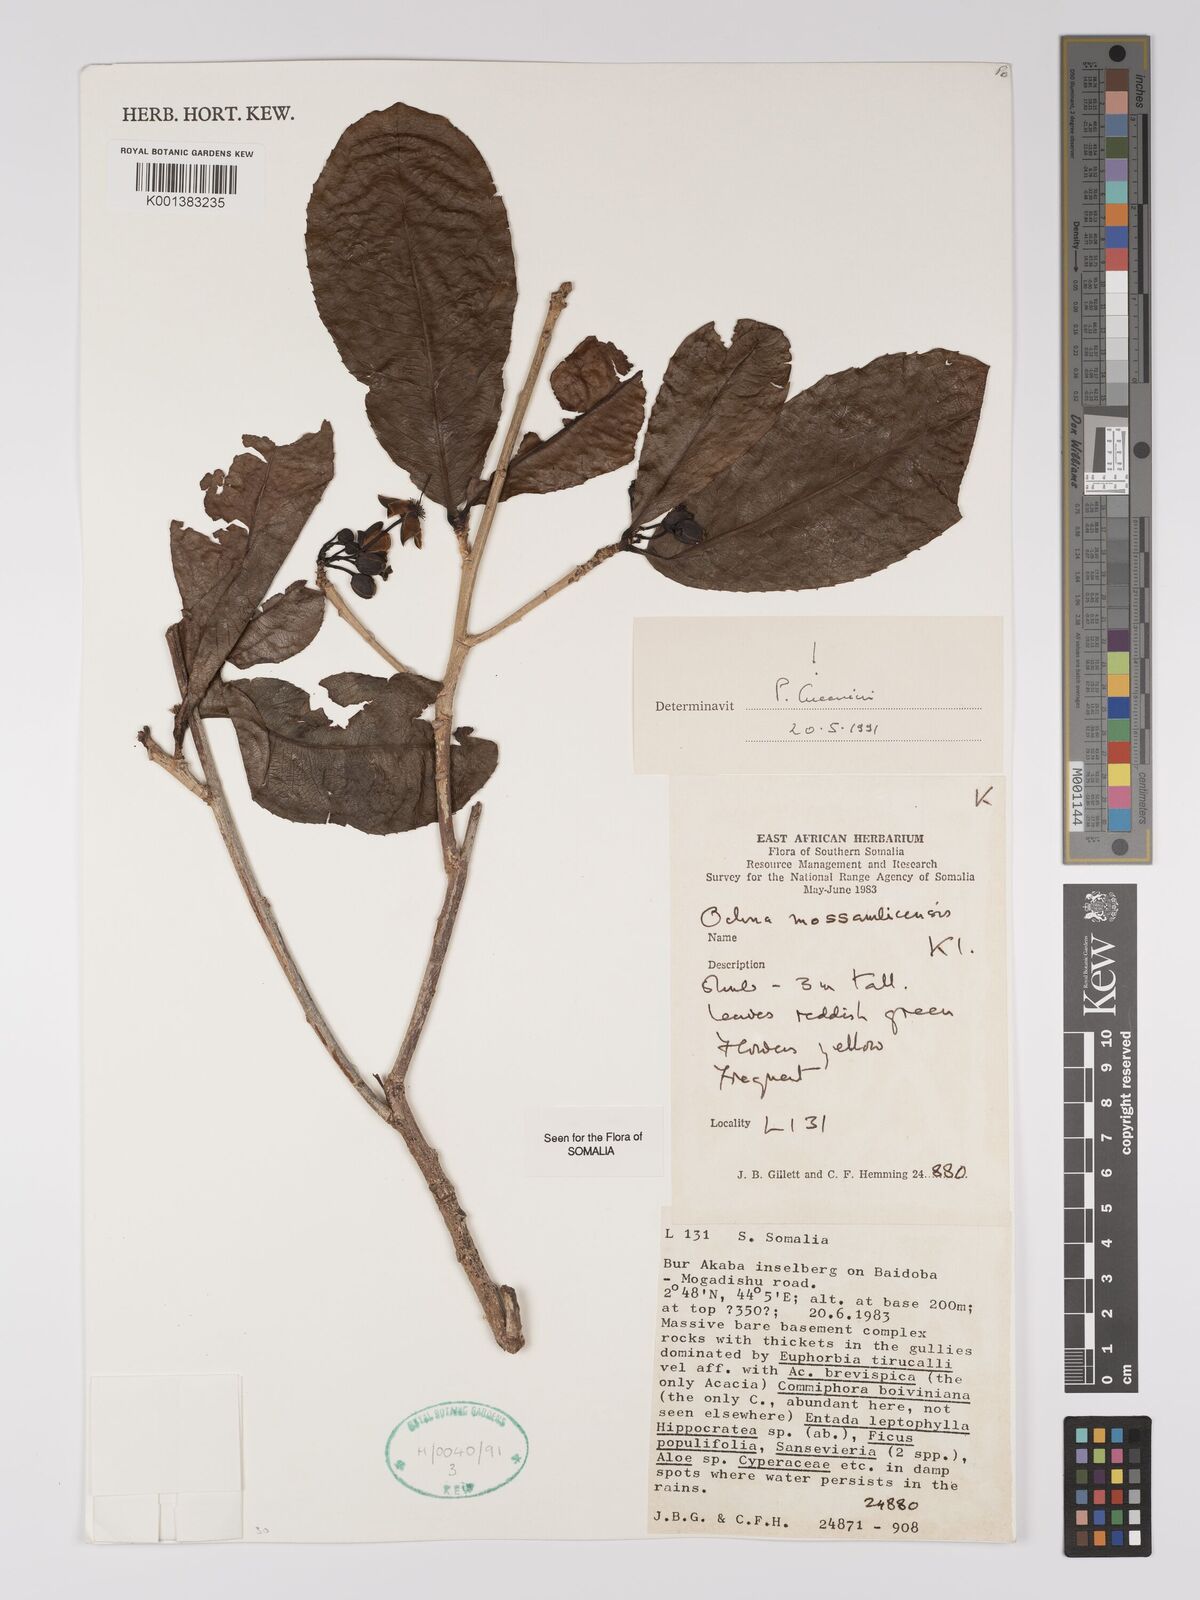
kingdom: Plantae
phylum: Tracheophyta
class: Magnoliopsida
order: Malpighiales
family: Ochnaceae
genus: Ochna
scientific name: Ochna atropurpurea
